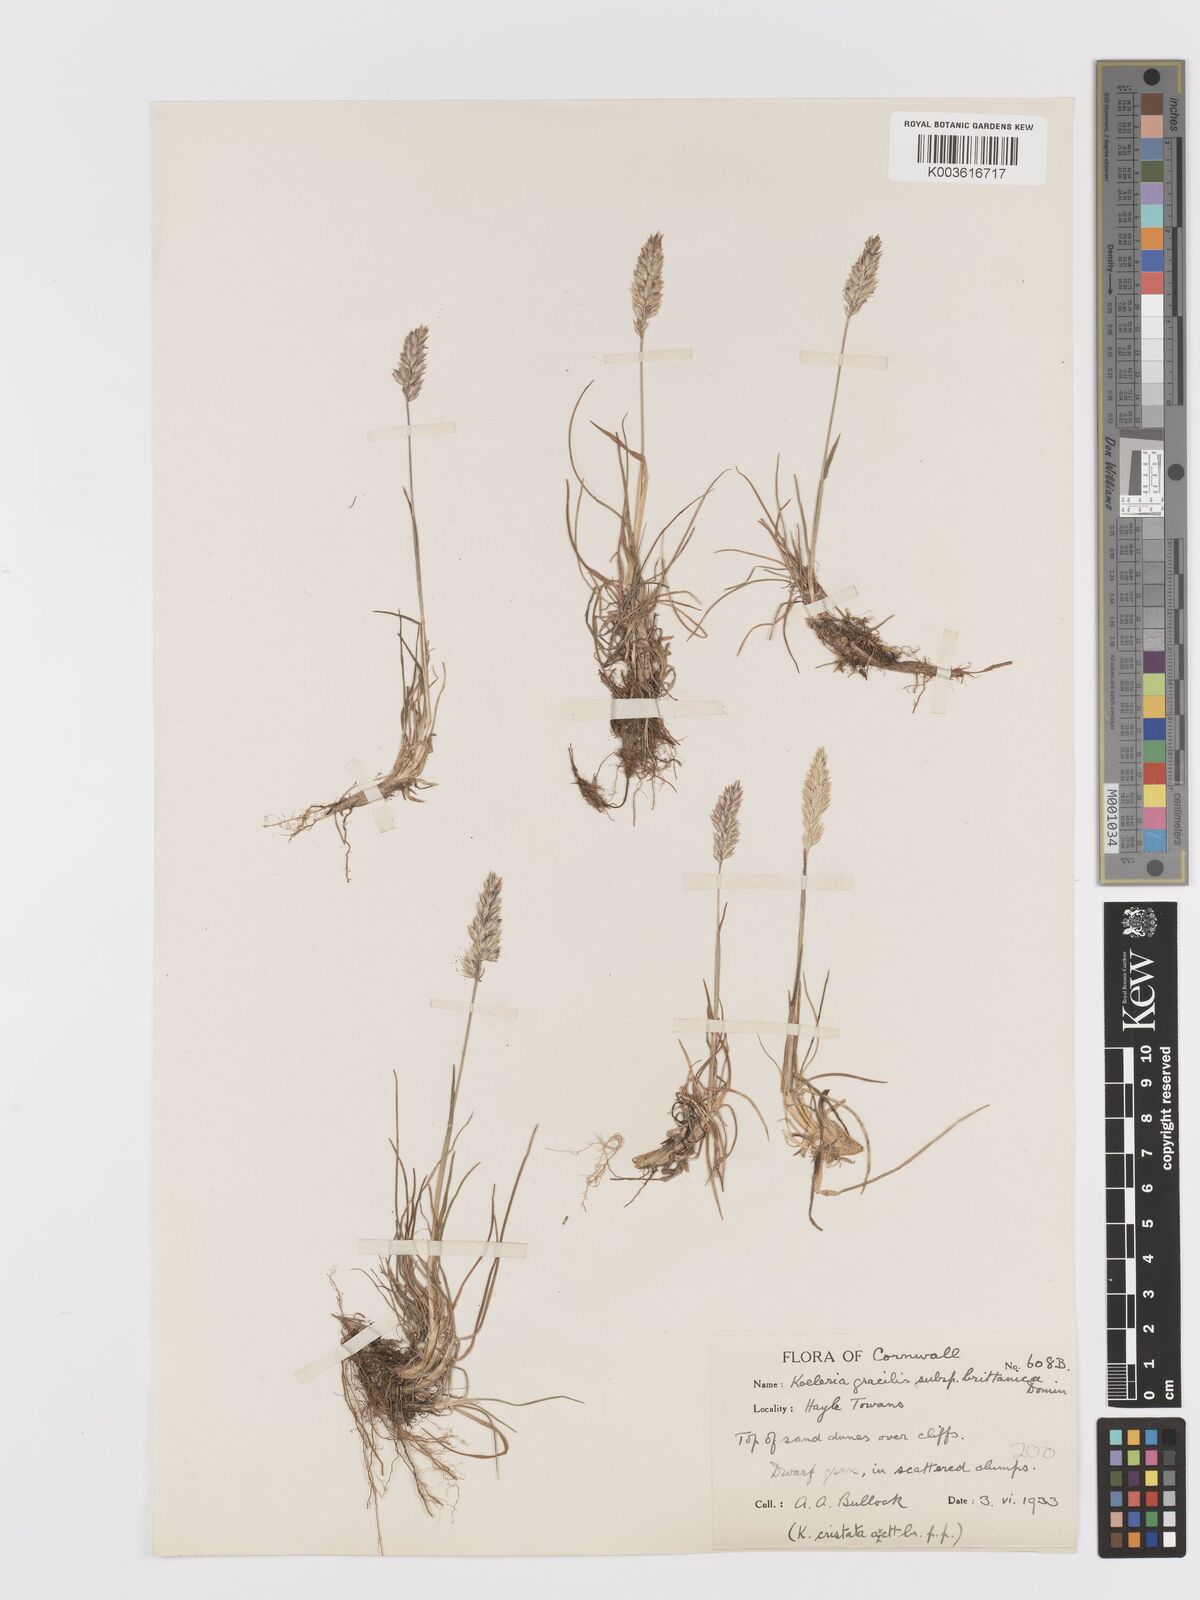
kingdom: Plantae
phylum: Tracheophyta
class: Liliopsida
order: Poales
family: Poaceae
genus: Koeleria
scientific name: Koeleria
